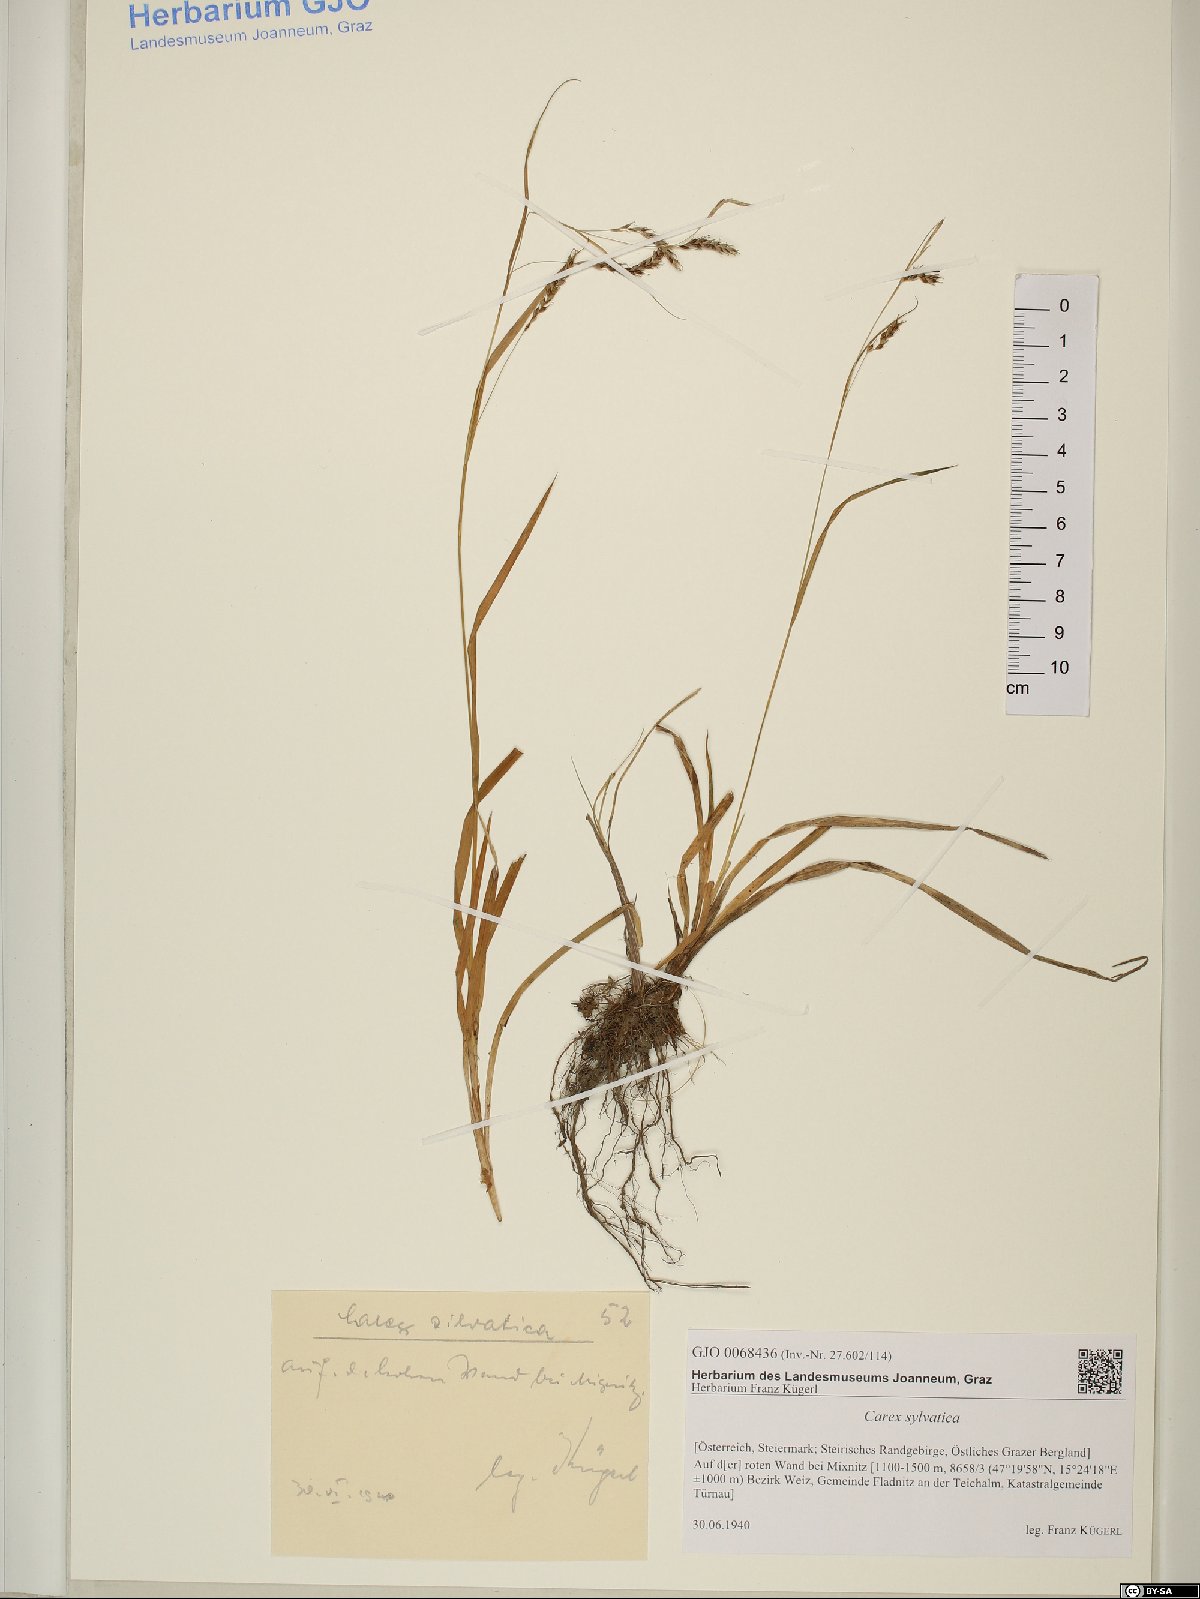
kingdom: Plantae
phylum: Tracheophyta
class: Liliopsida
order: Poales
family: Cyperaceae
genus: Carex
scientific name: Carex sylvatica
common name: Wood-sedge
